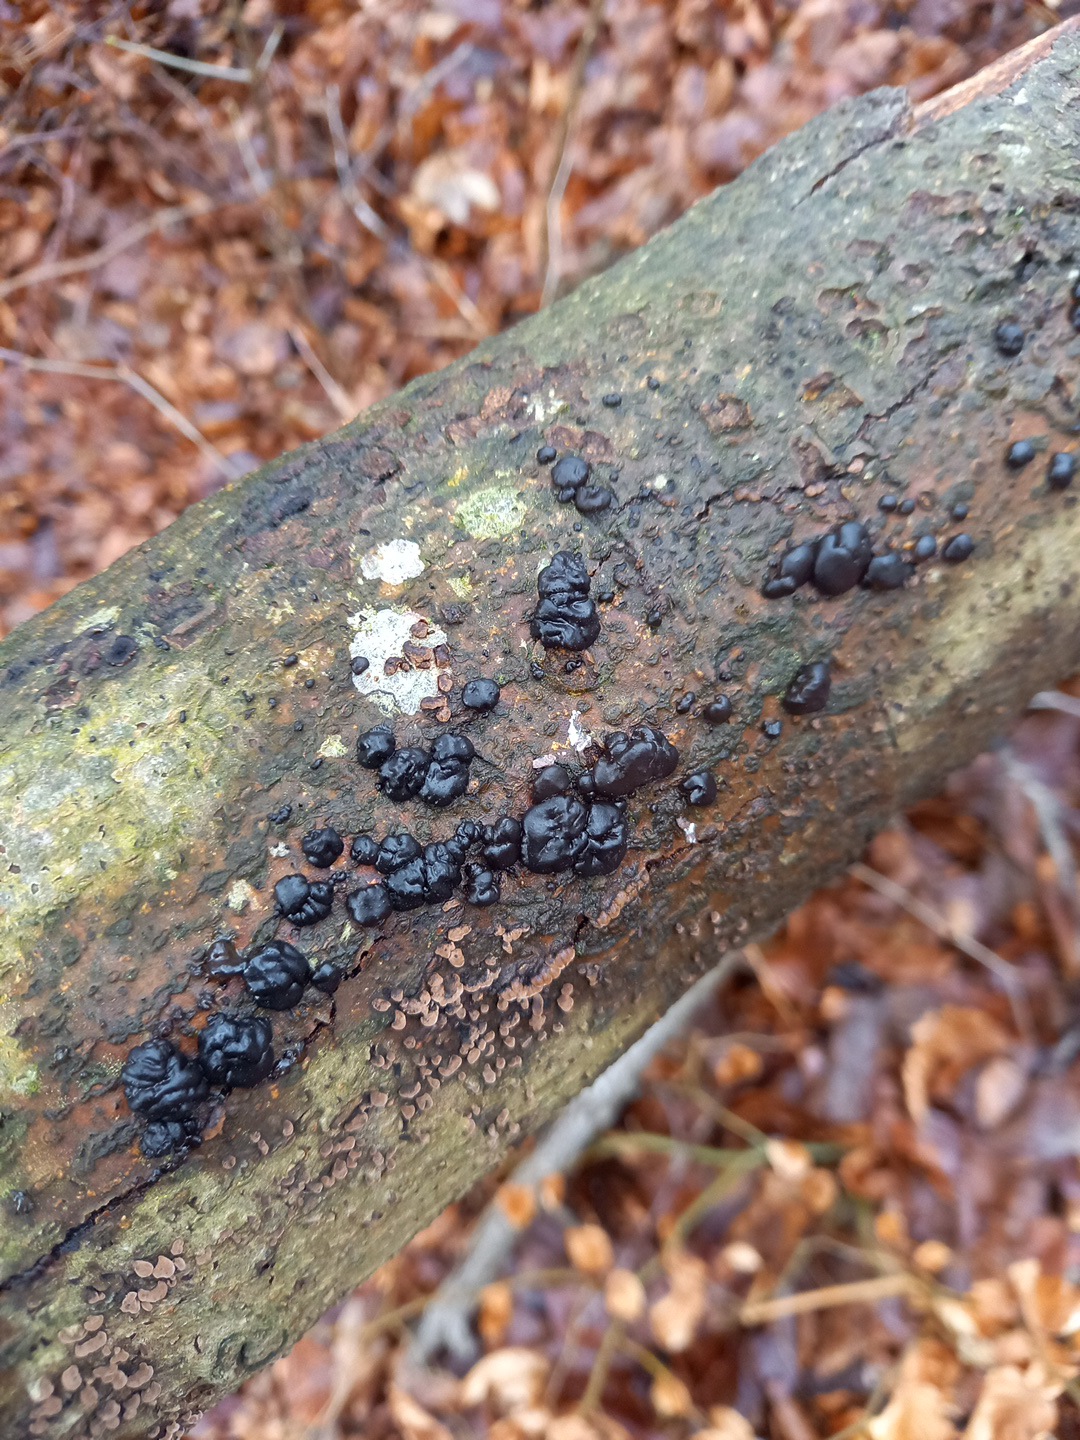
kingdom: Fungi
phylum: Basidiomycota
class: Agaricomycetes
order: Auriculariales
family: Auriculariaceae
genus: Exidia
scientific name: Exidia nigricans
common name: almindelig bævretop
